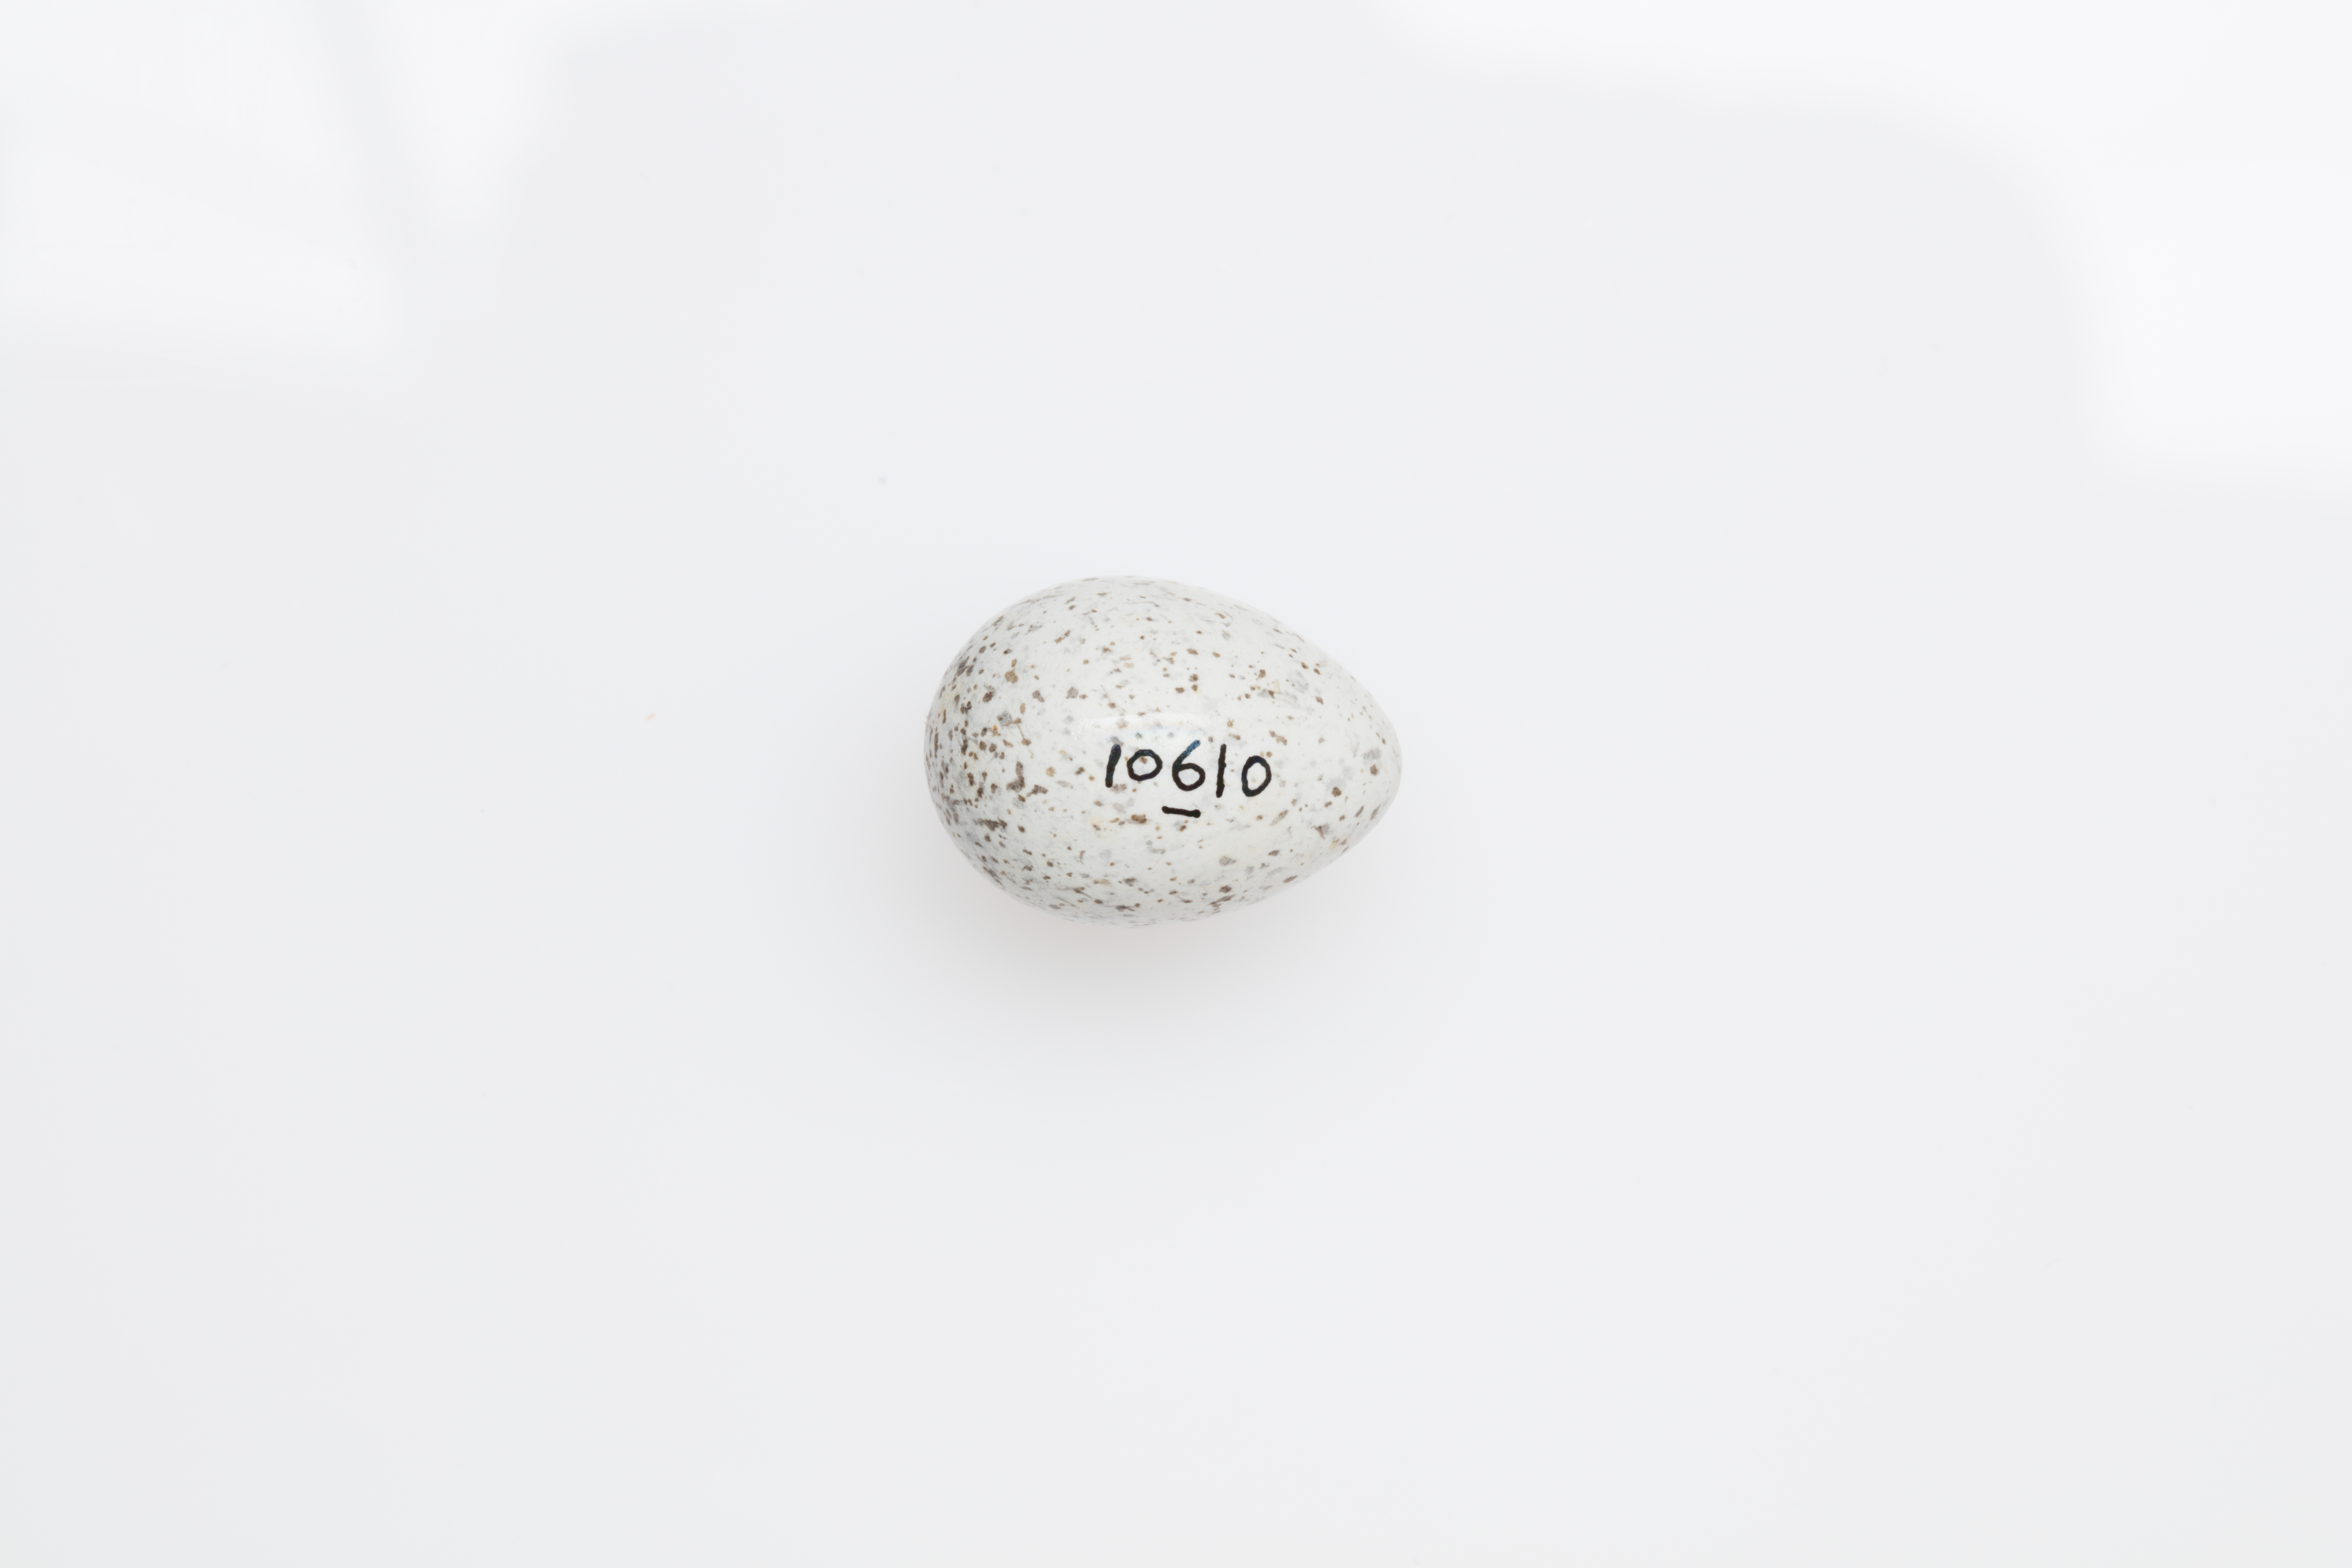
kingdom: Animalia
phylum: Chordata
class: Aves
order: Passeriformes
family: Motacillidae
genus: Motacilla
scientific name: Motacilla alba
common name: White wagtail
